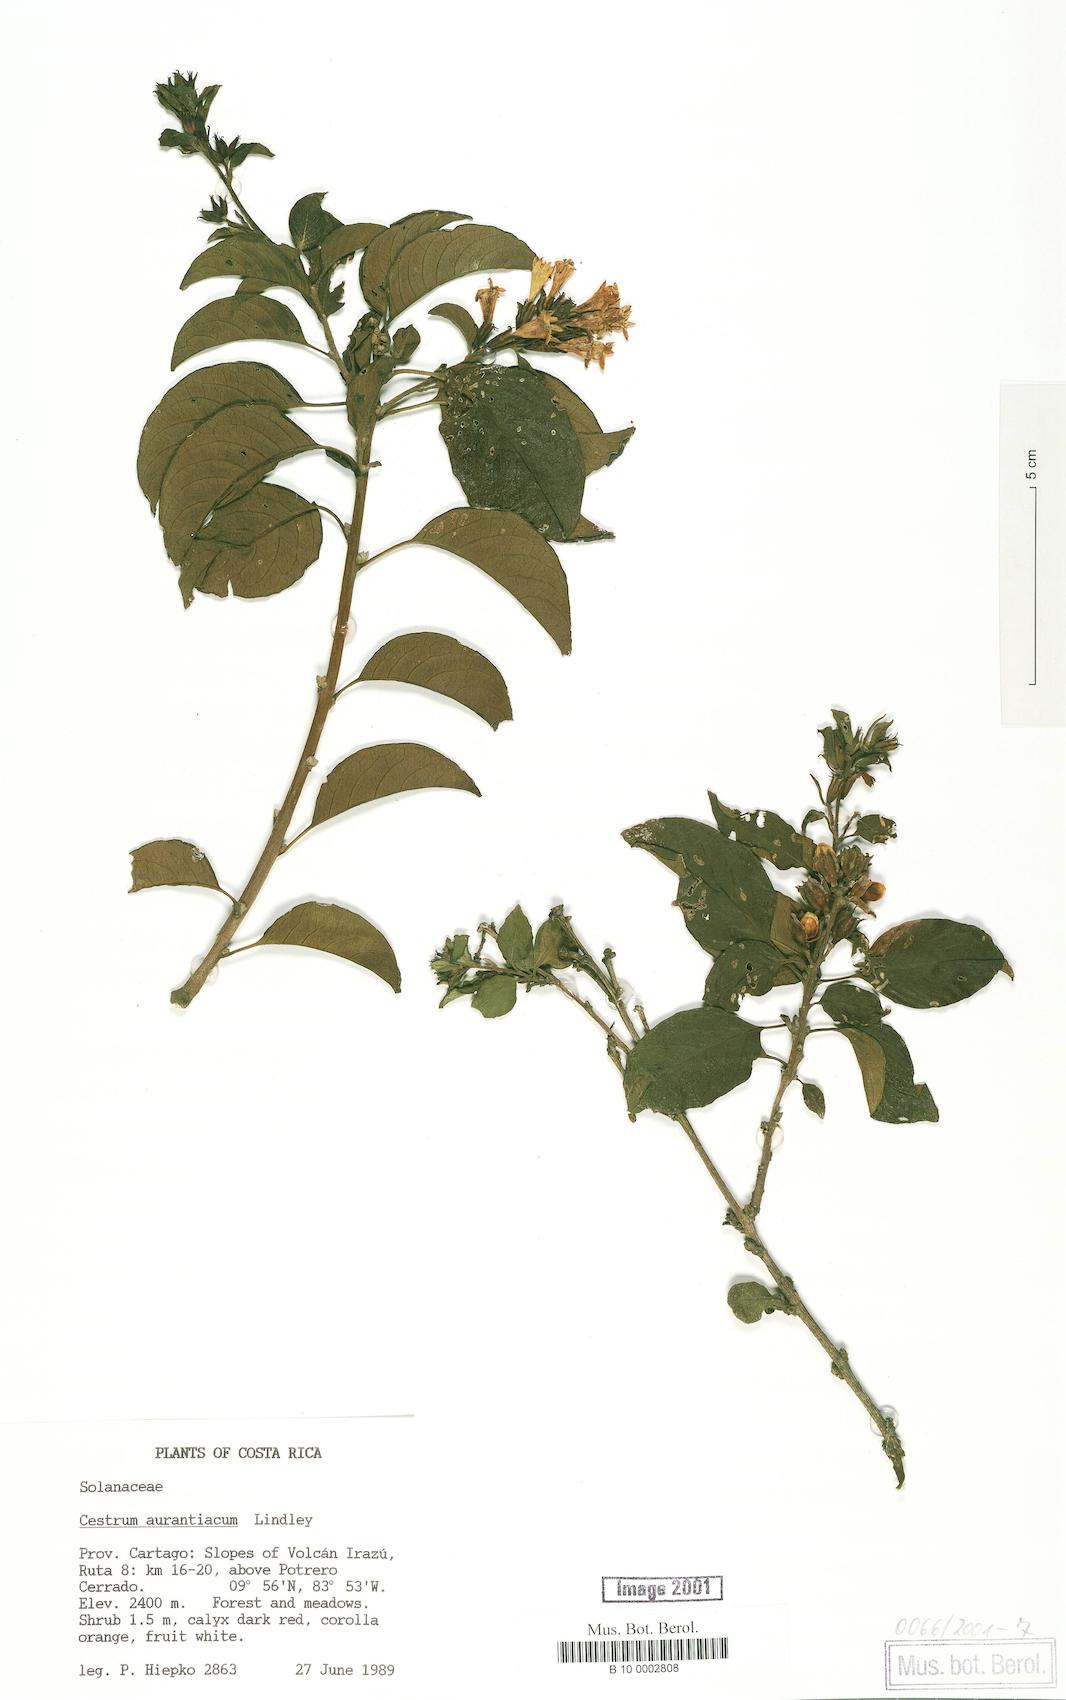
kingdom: Plantae
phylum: Tracheophyta
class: Magnoliopsida
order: Solanales
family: Solanaceae
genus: Cestrum
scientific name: Cestrum aurantiacum
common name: Orange cestrum
